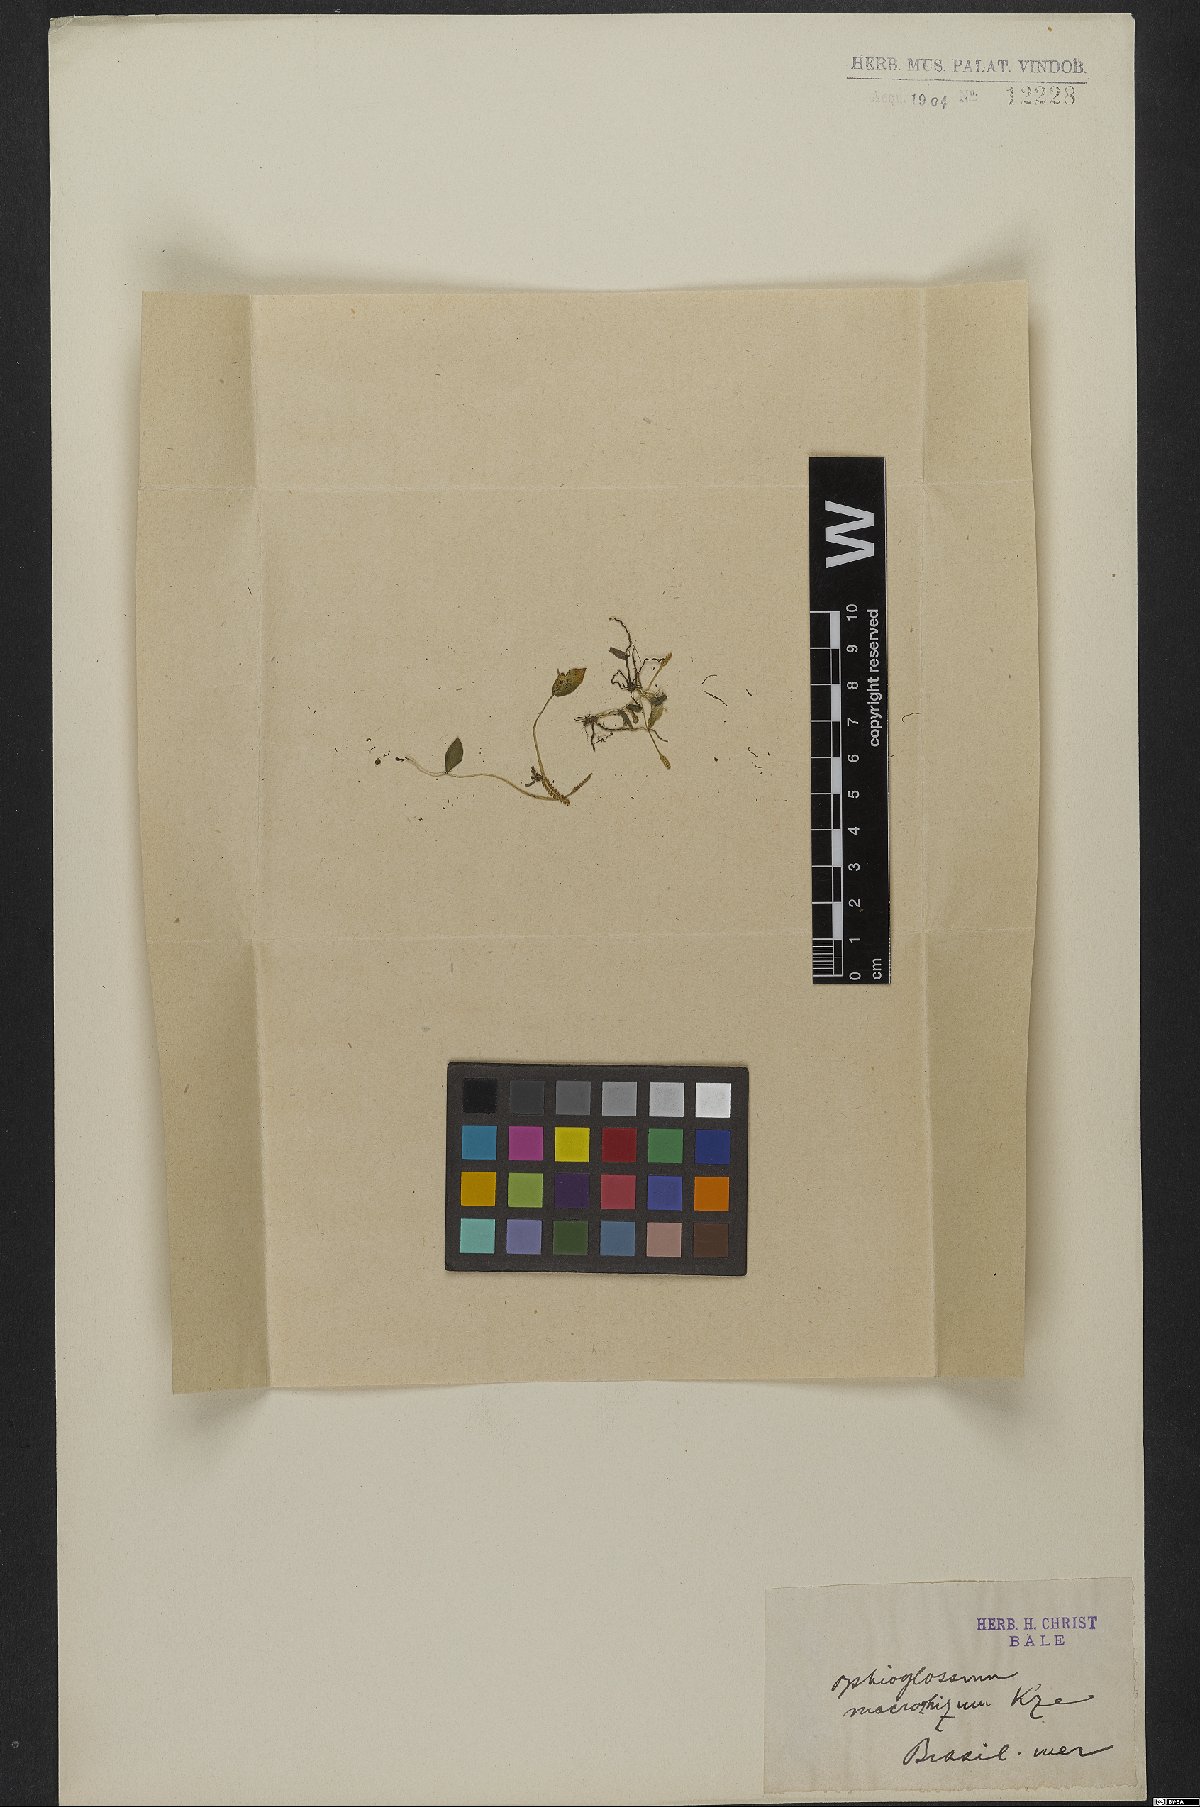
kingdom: Plantae
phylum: Tracheophyta
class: Polypodiopsida
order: Ophioglossales
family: Ophioglossaceae
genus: Ophioglossum
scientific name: Ophioglossum parvifolium
